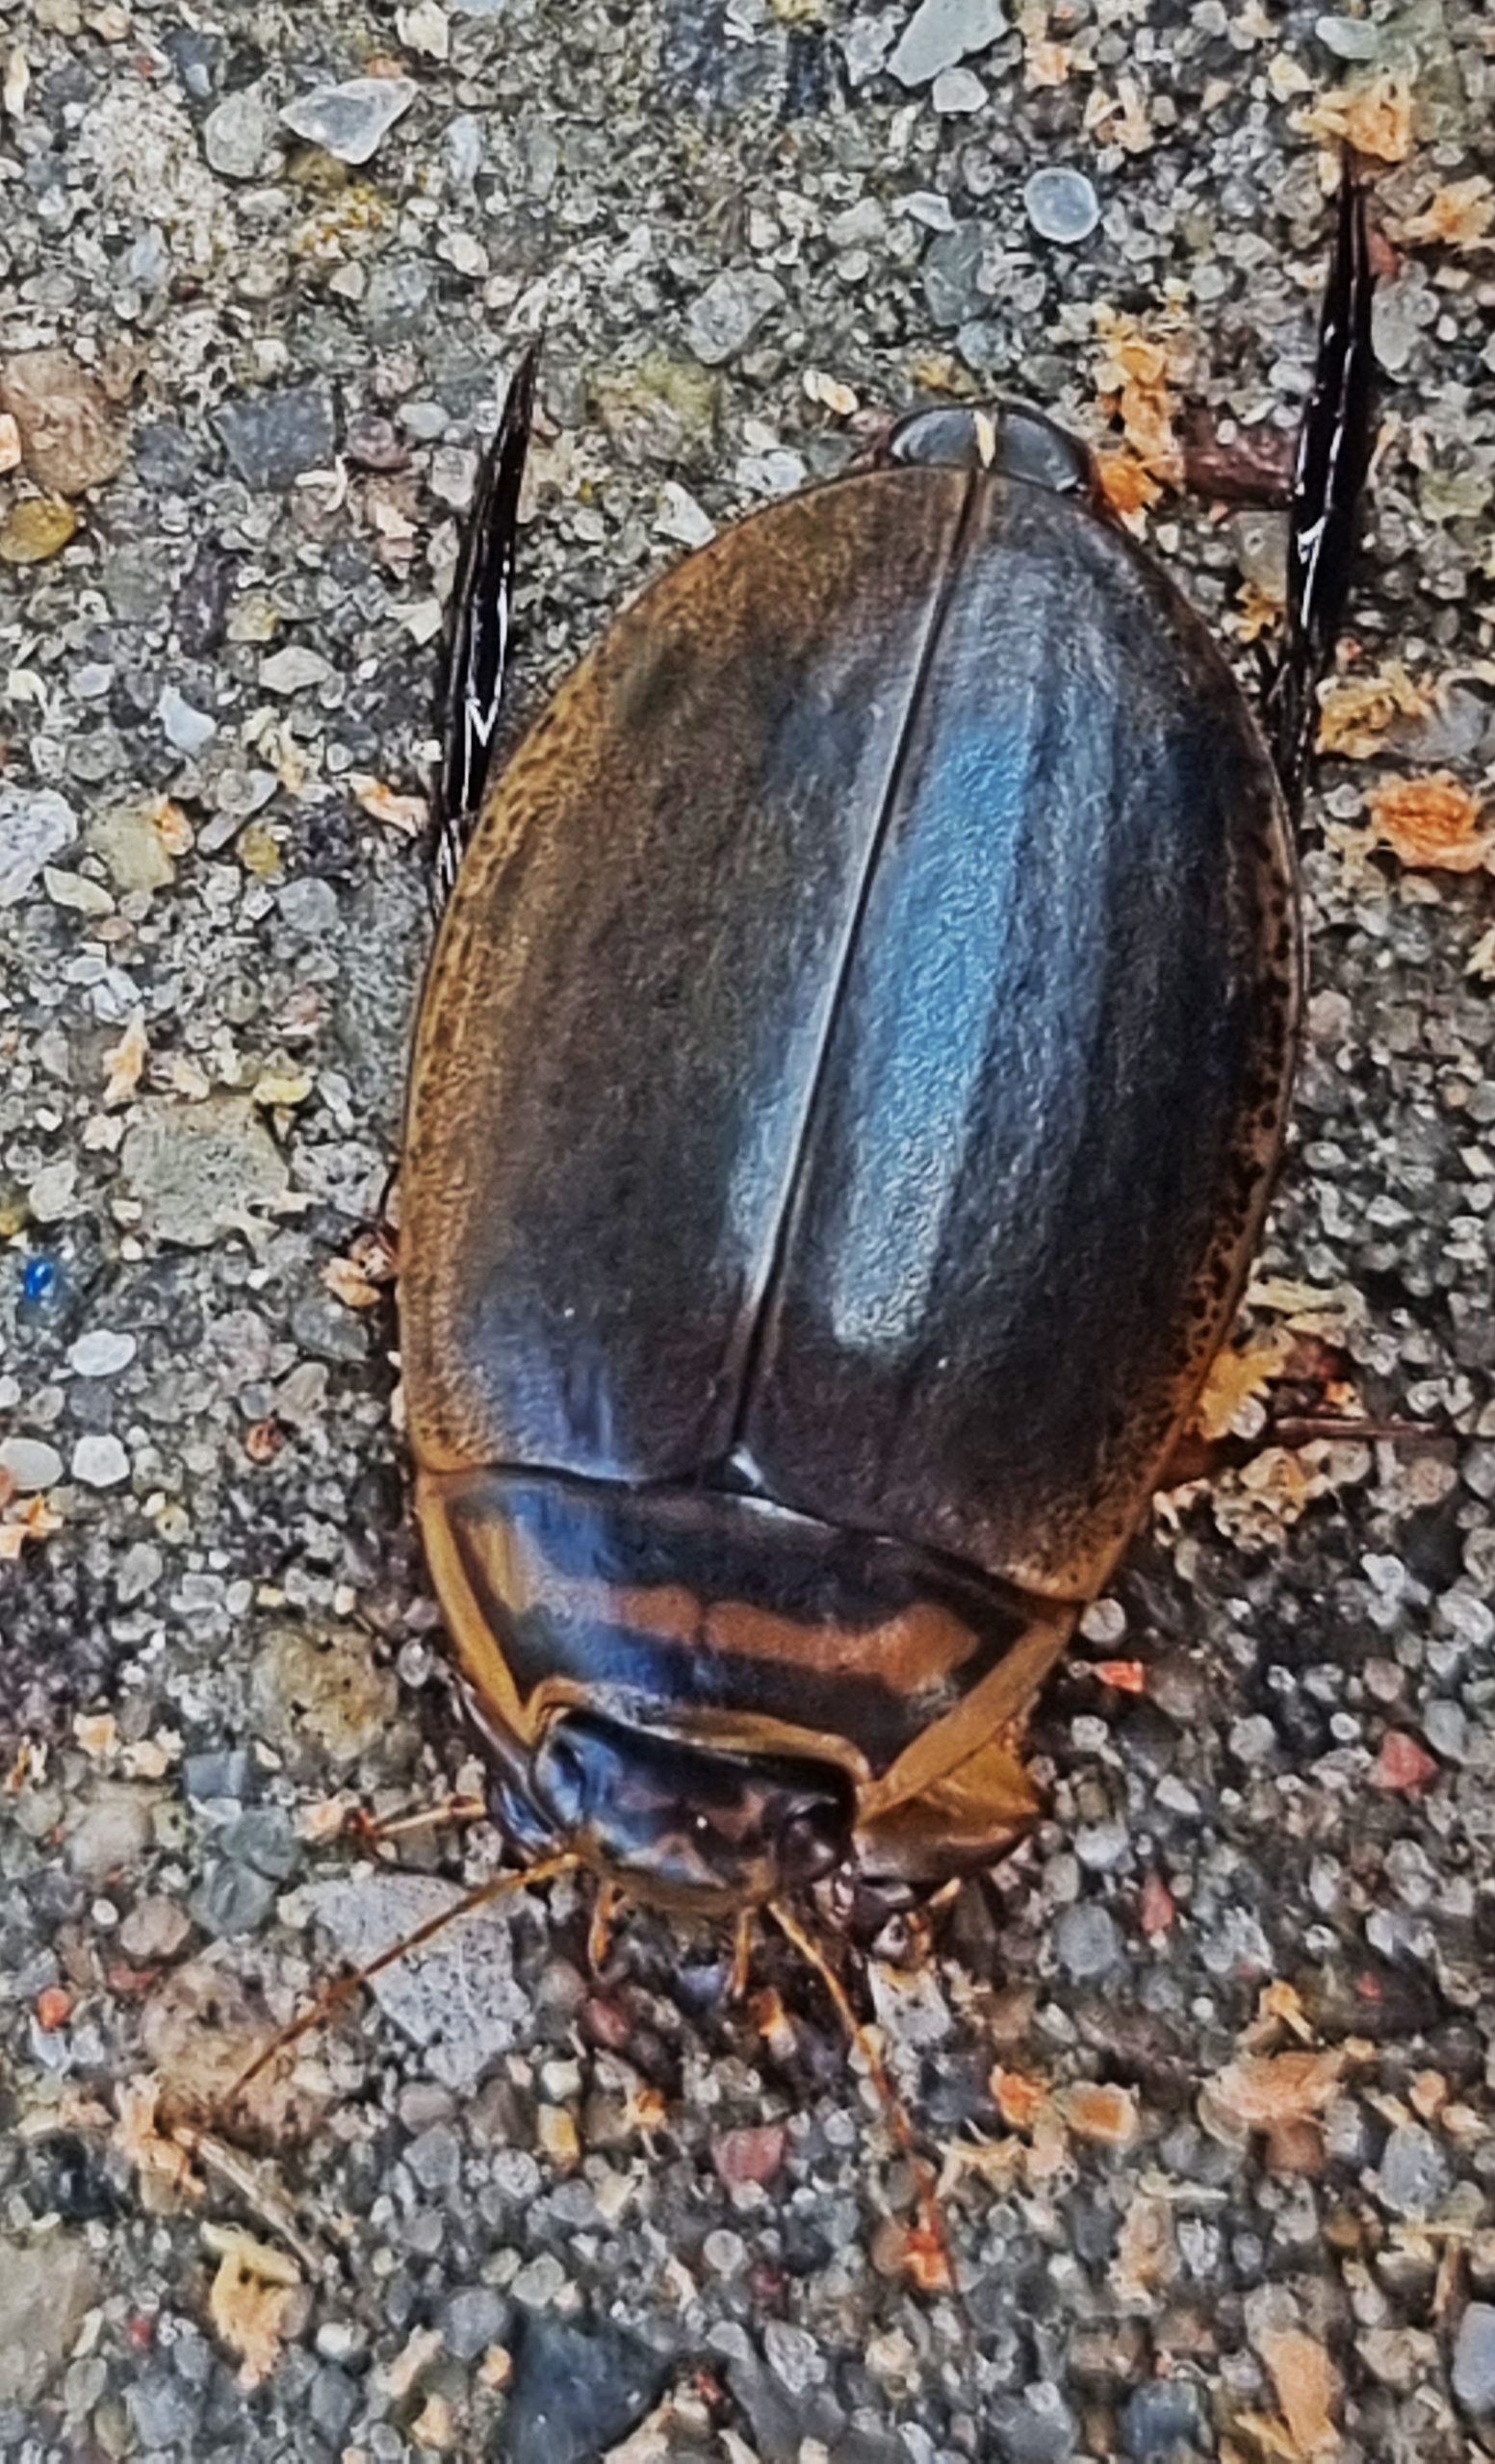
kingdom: Animalia
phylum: Arthropoda
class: Insecta
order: Coleoptera
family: Dytiscidae
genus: Acilius
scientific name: Acilius sulcatus
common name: Stribet skivevandkalv
